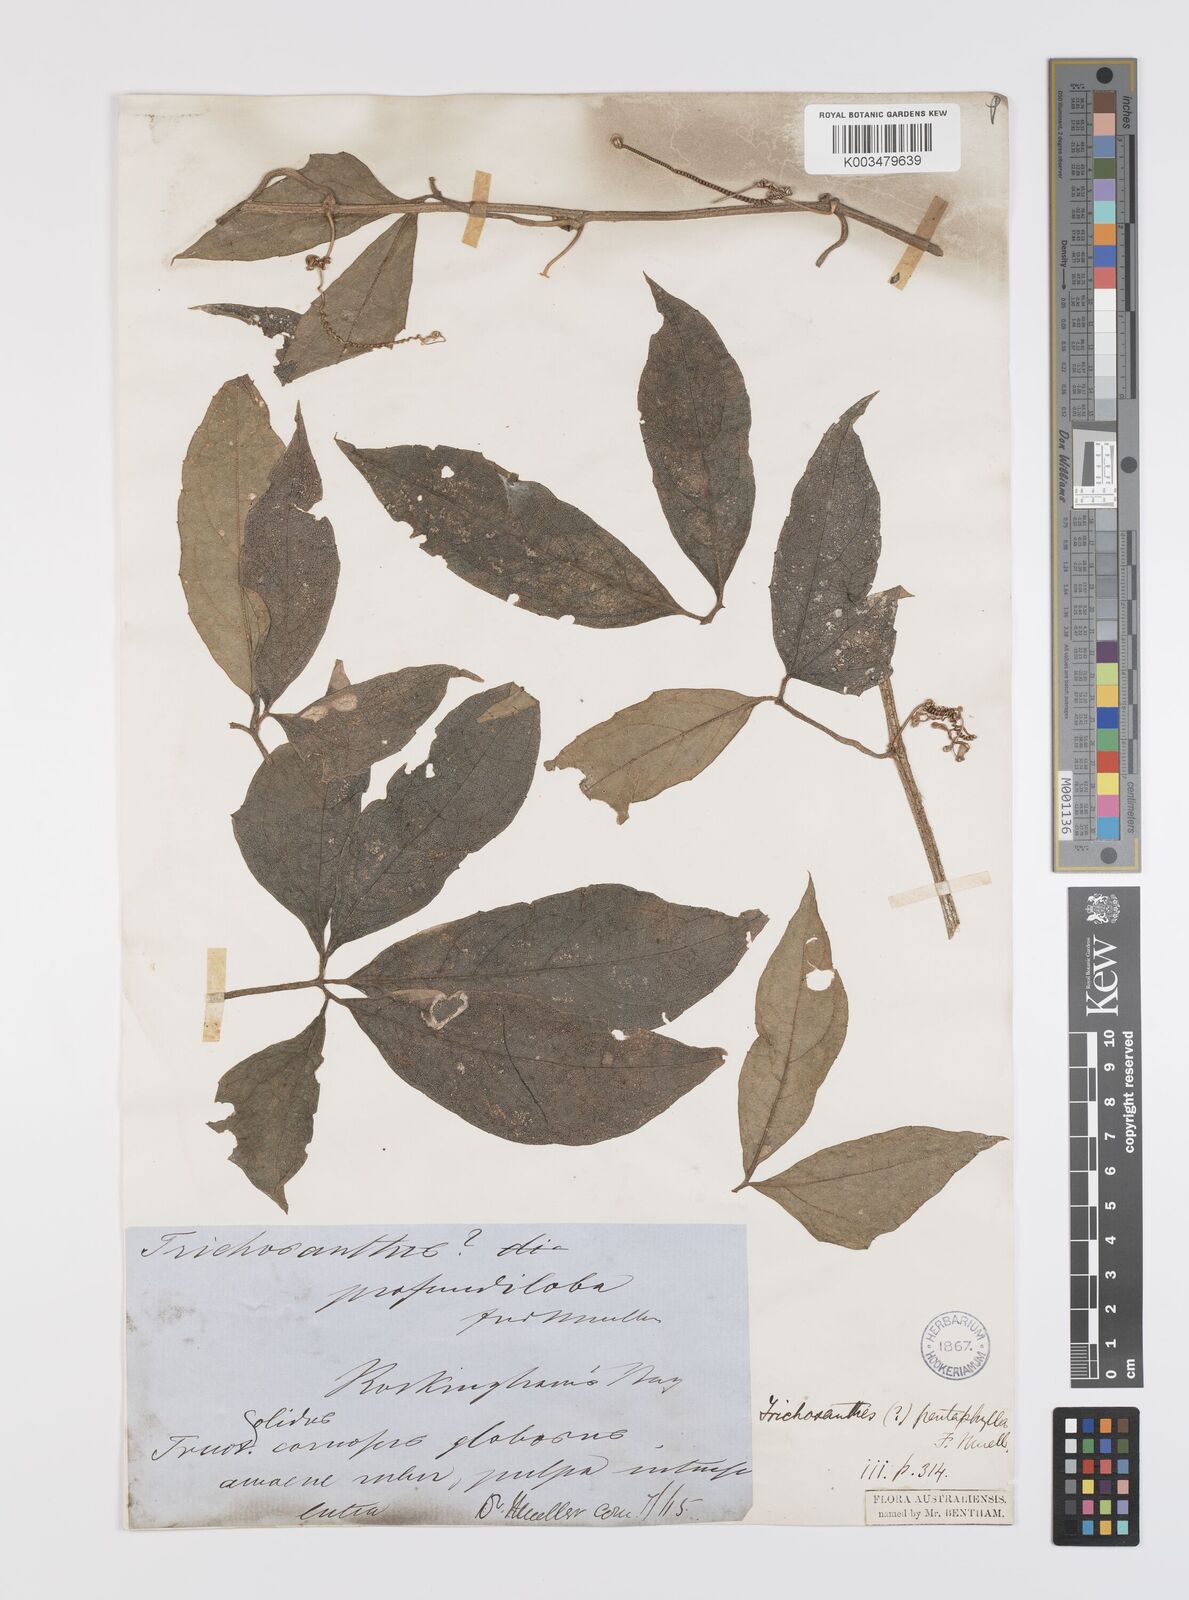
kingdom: Plantae
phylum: Tracheophyta
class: Magnoliopsida
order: Cucurbitales
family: Cucurbitaceae
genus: Trichosanthes
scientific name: Trichosanthes pentaphylla
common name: Red gourd
